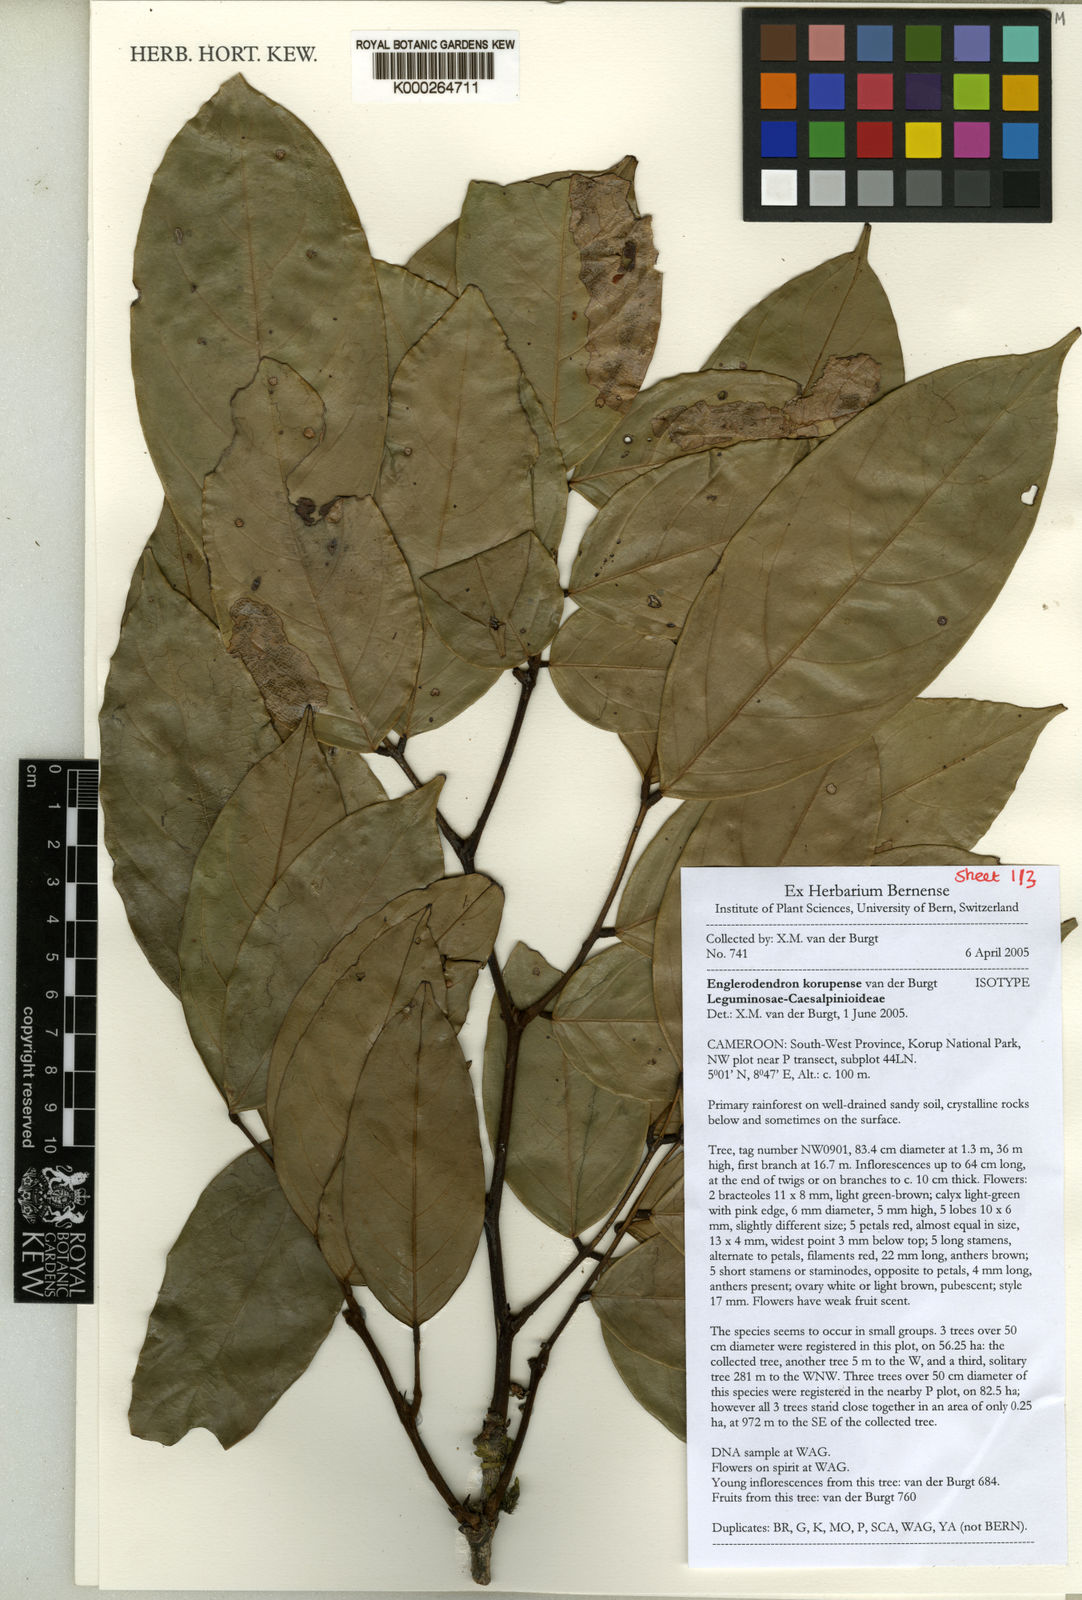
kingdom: Plantae
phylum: Tracheophyta
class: Magnoliopsida
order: Fabales
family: Fabaceae
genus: Englerodendron
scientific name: Englerodendron korupense
